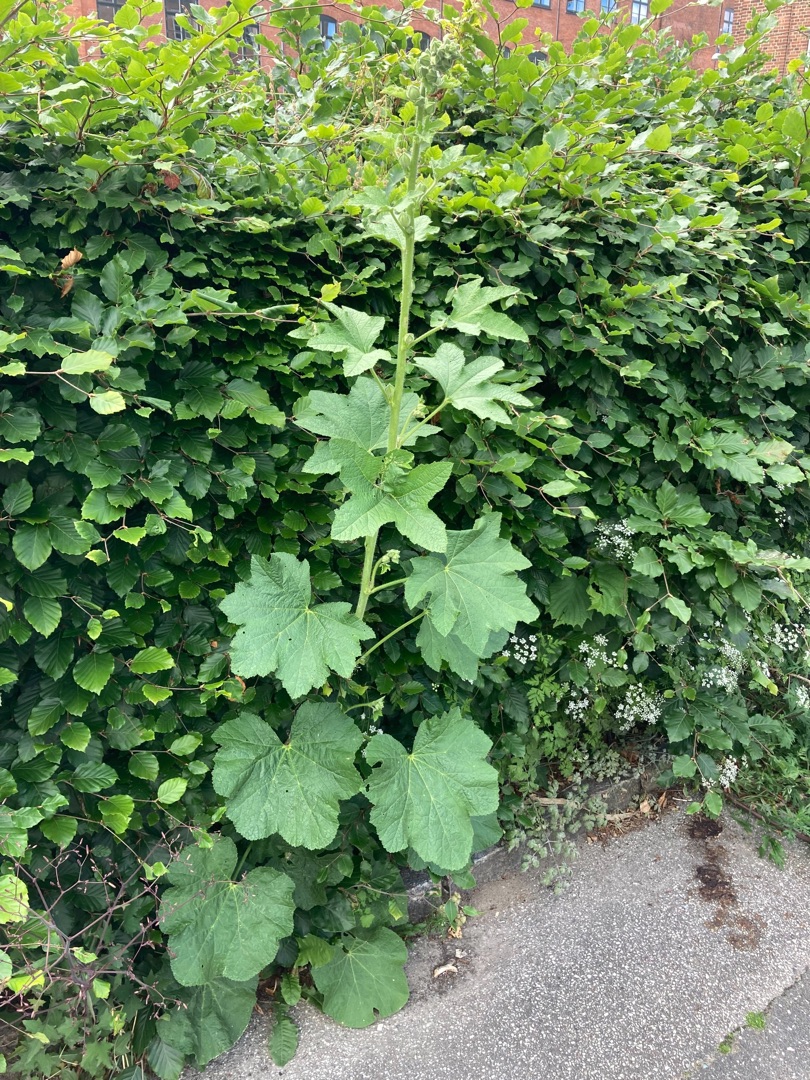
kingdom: Plantae
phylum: Tracheophyta
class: Magnoliopsida
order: Malvales
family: Malvaceae
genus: Alcea
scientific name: Alcea rosea
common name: Have-stokrose
